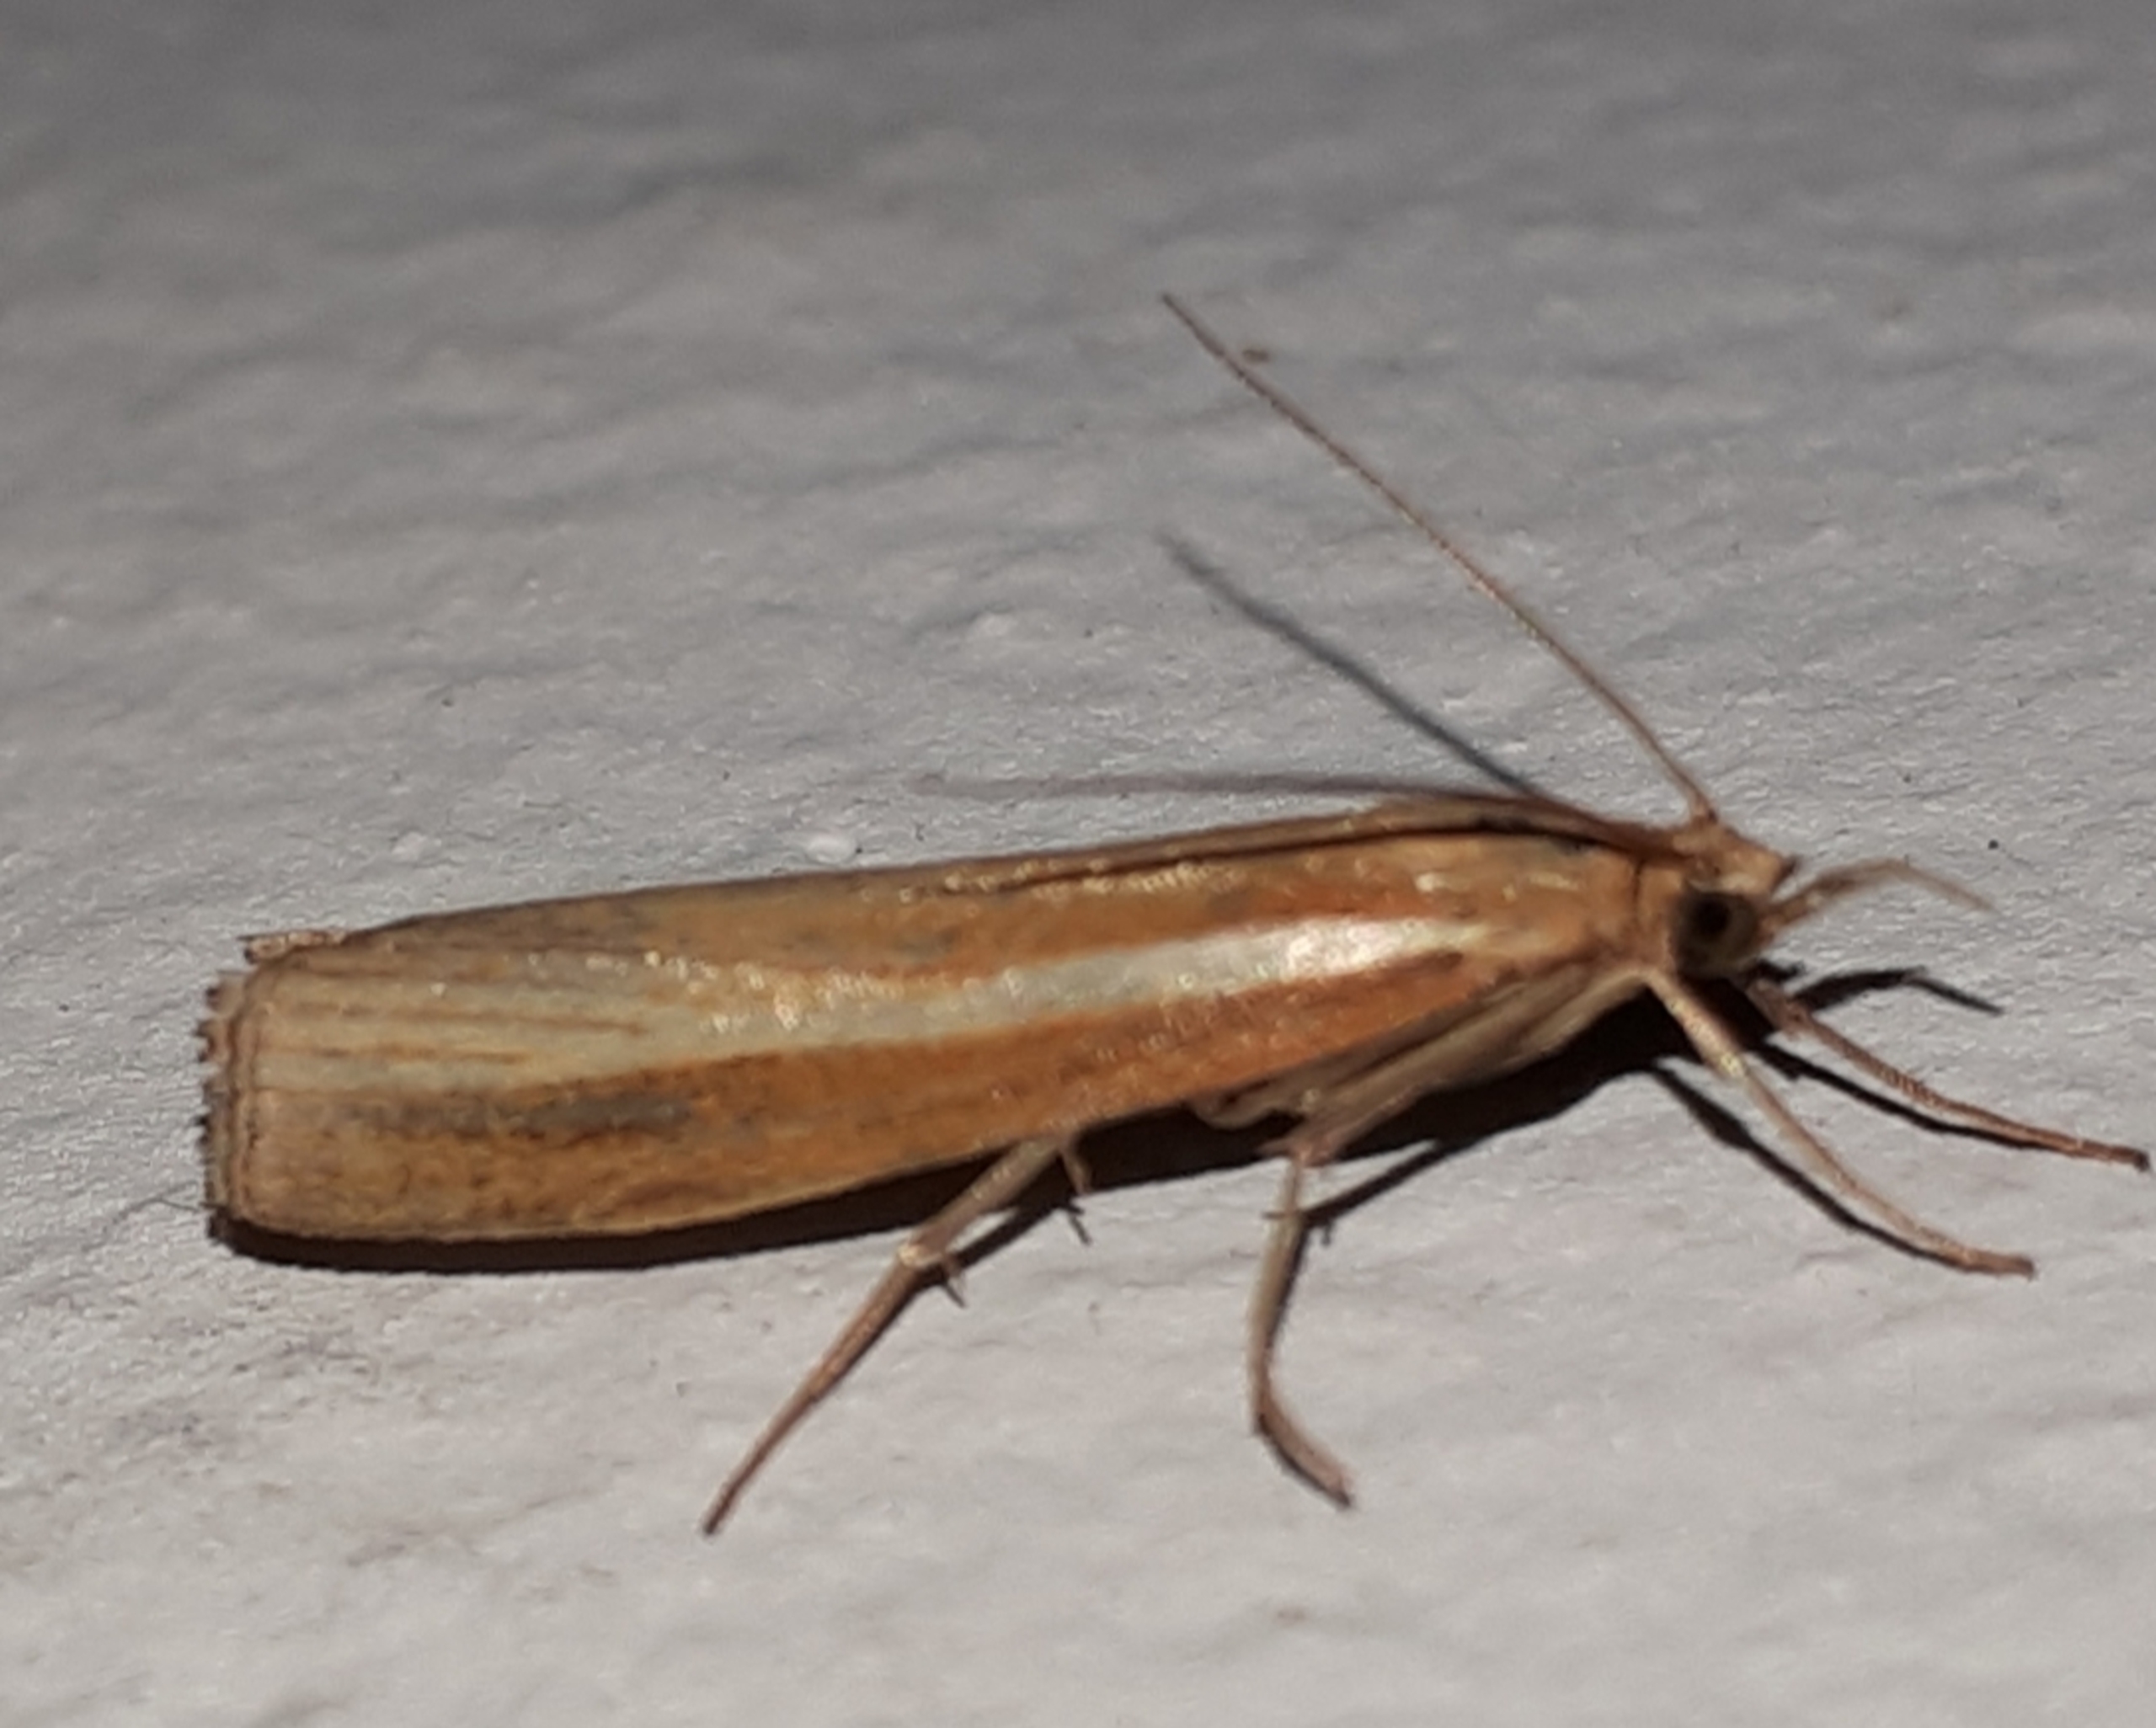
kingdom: Animalia
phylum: Arthropoda
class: Insecta
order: Lepidoptera
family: Crambidae
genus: Agriphila
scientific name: Agriphila tristellus
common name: Okkergult græsmøl
